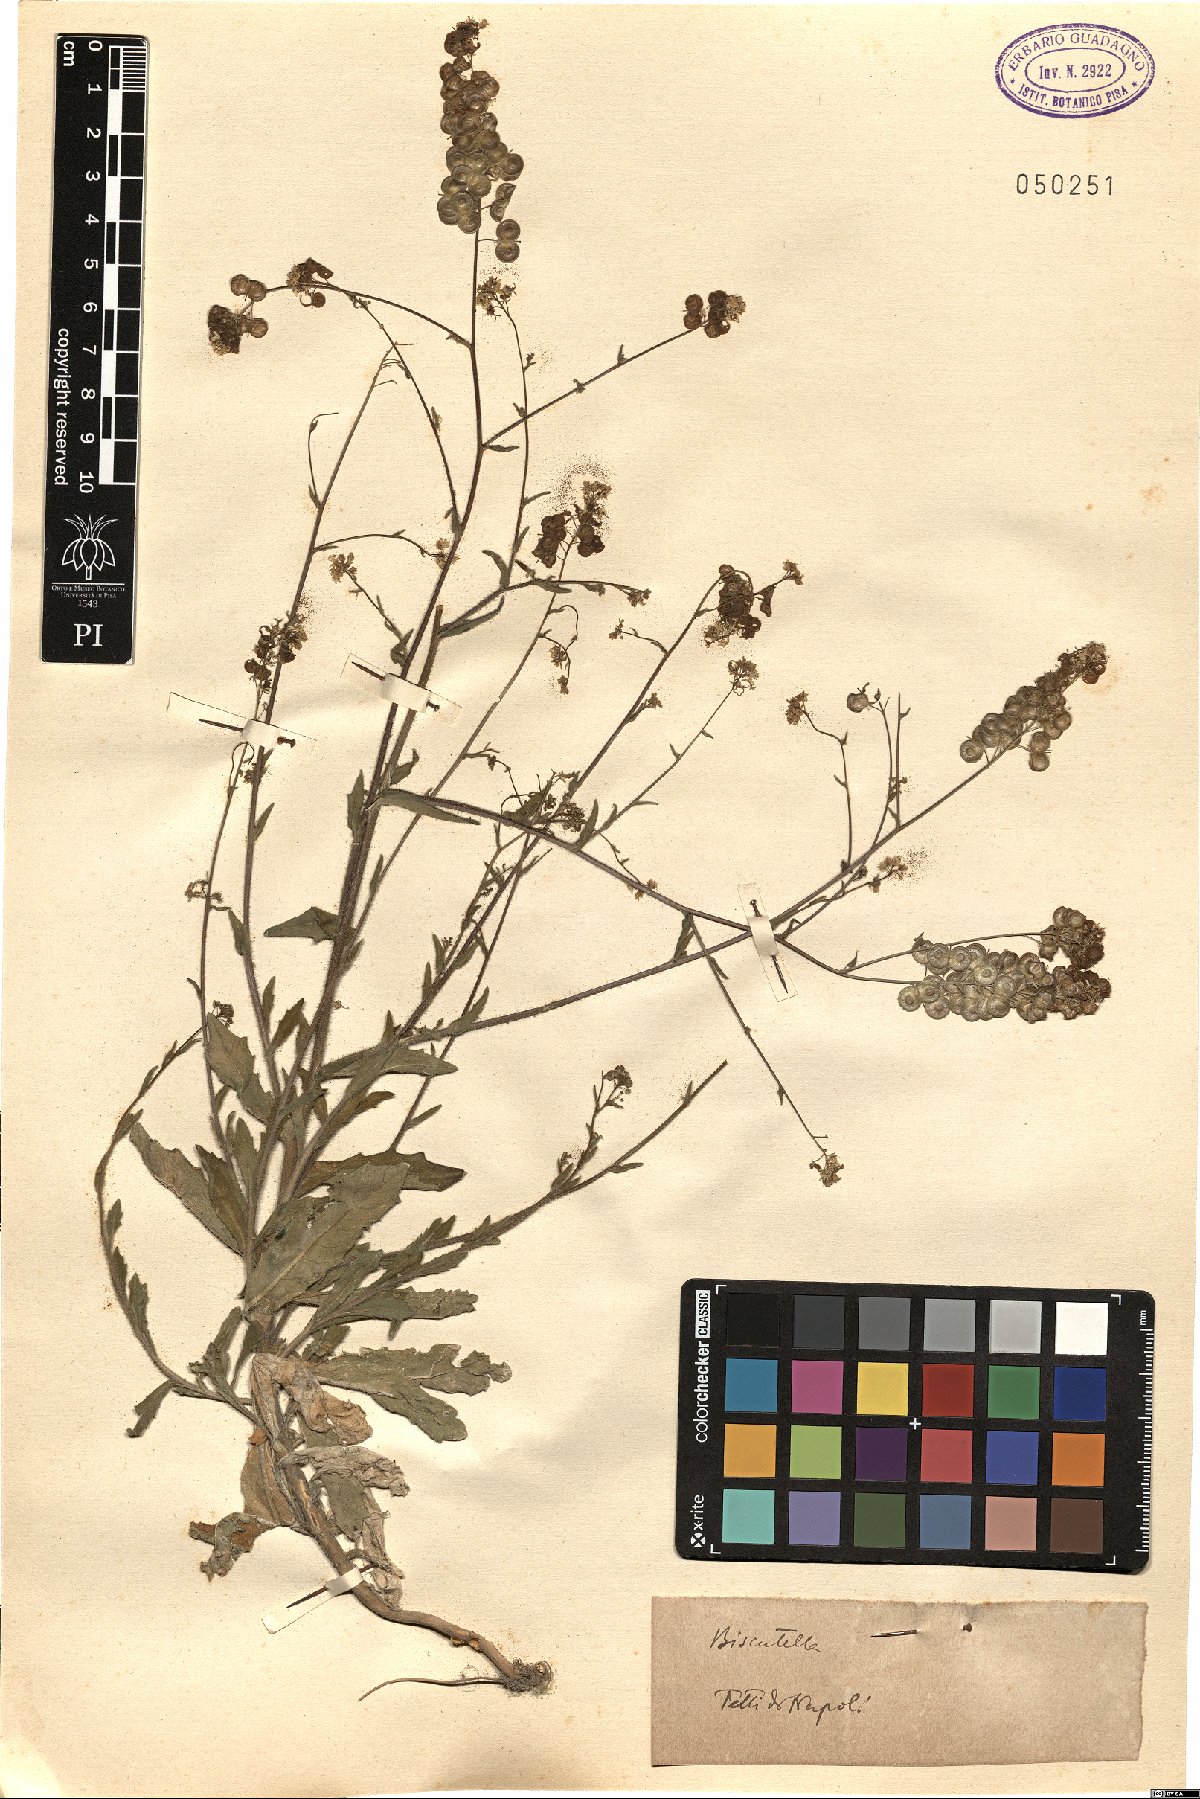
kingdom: Plantae
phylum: Tracheophyta
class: Magnoliopsida
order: Brassicales
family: Brassicaceae
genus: Biscutella
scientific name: Biscutella
